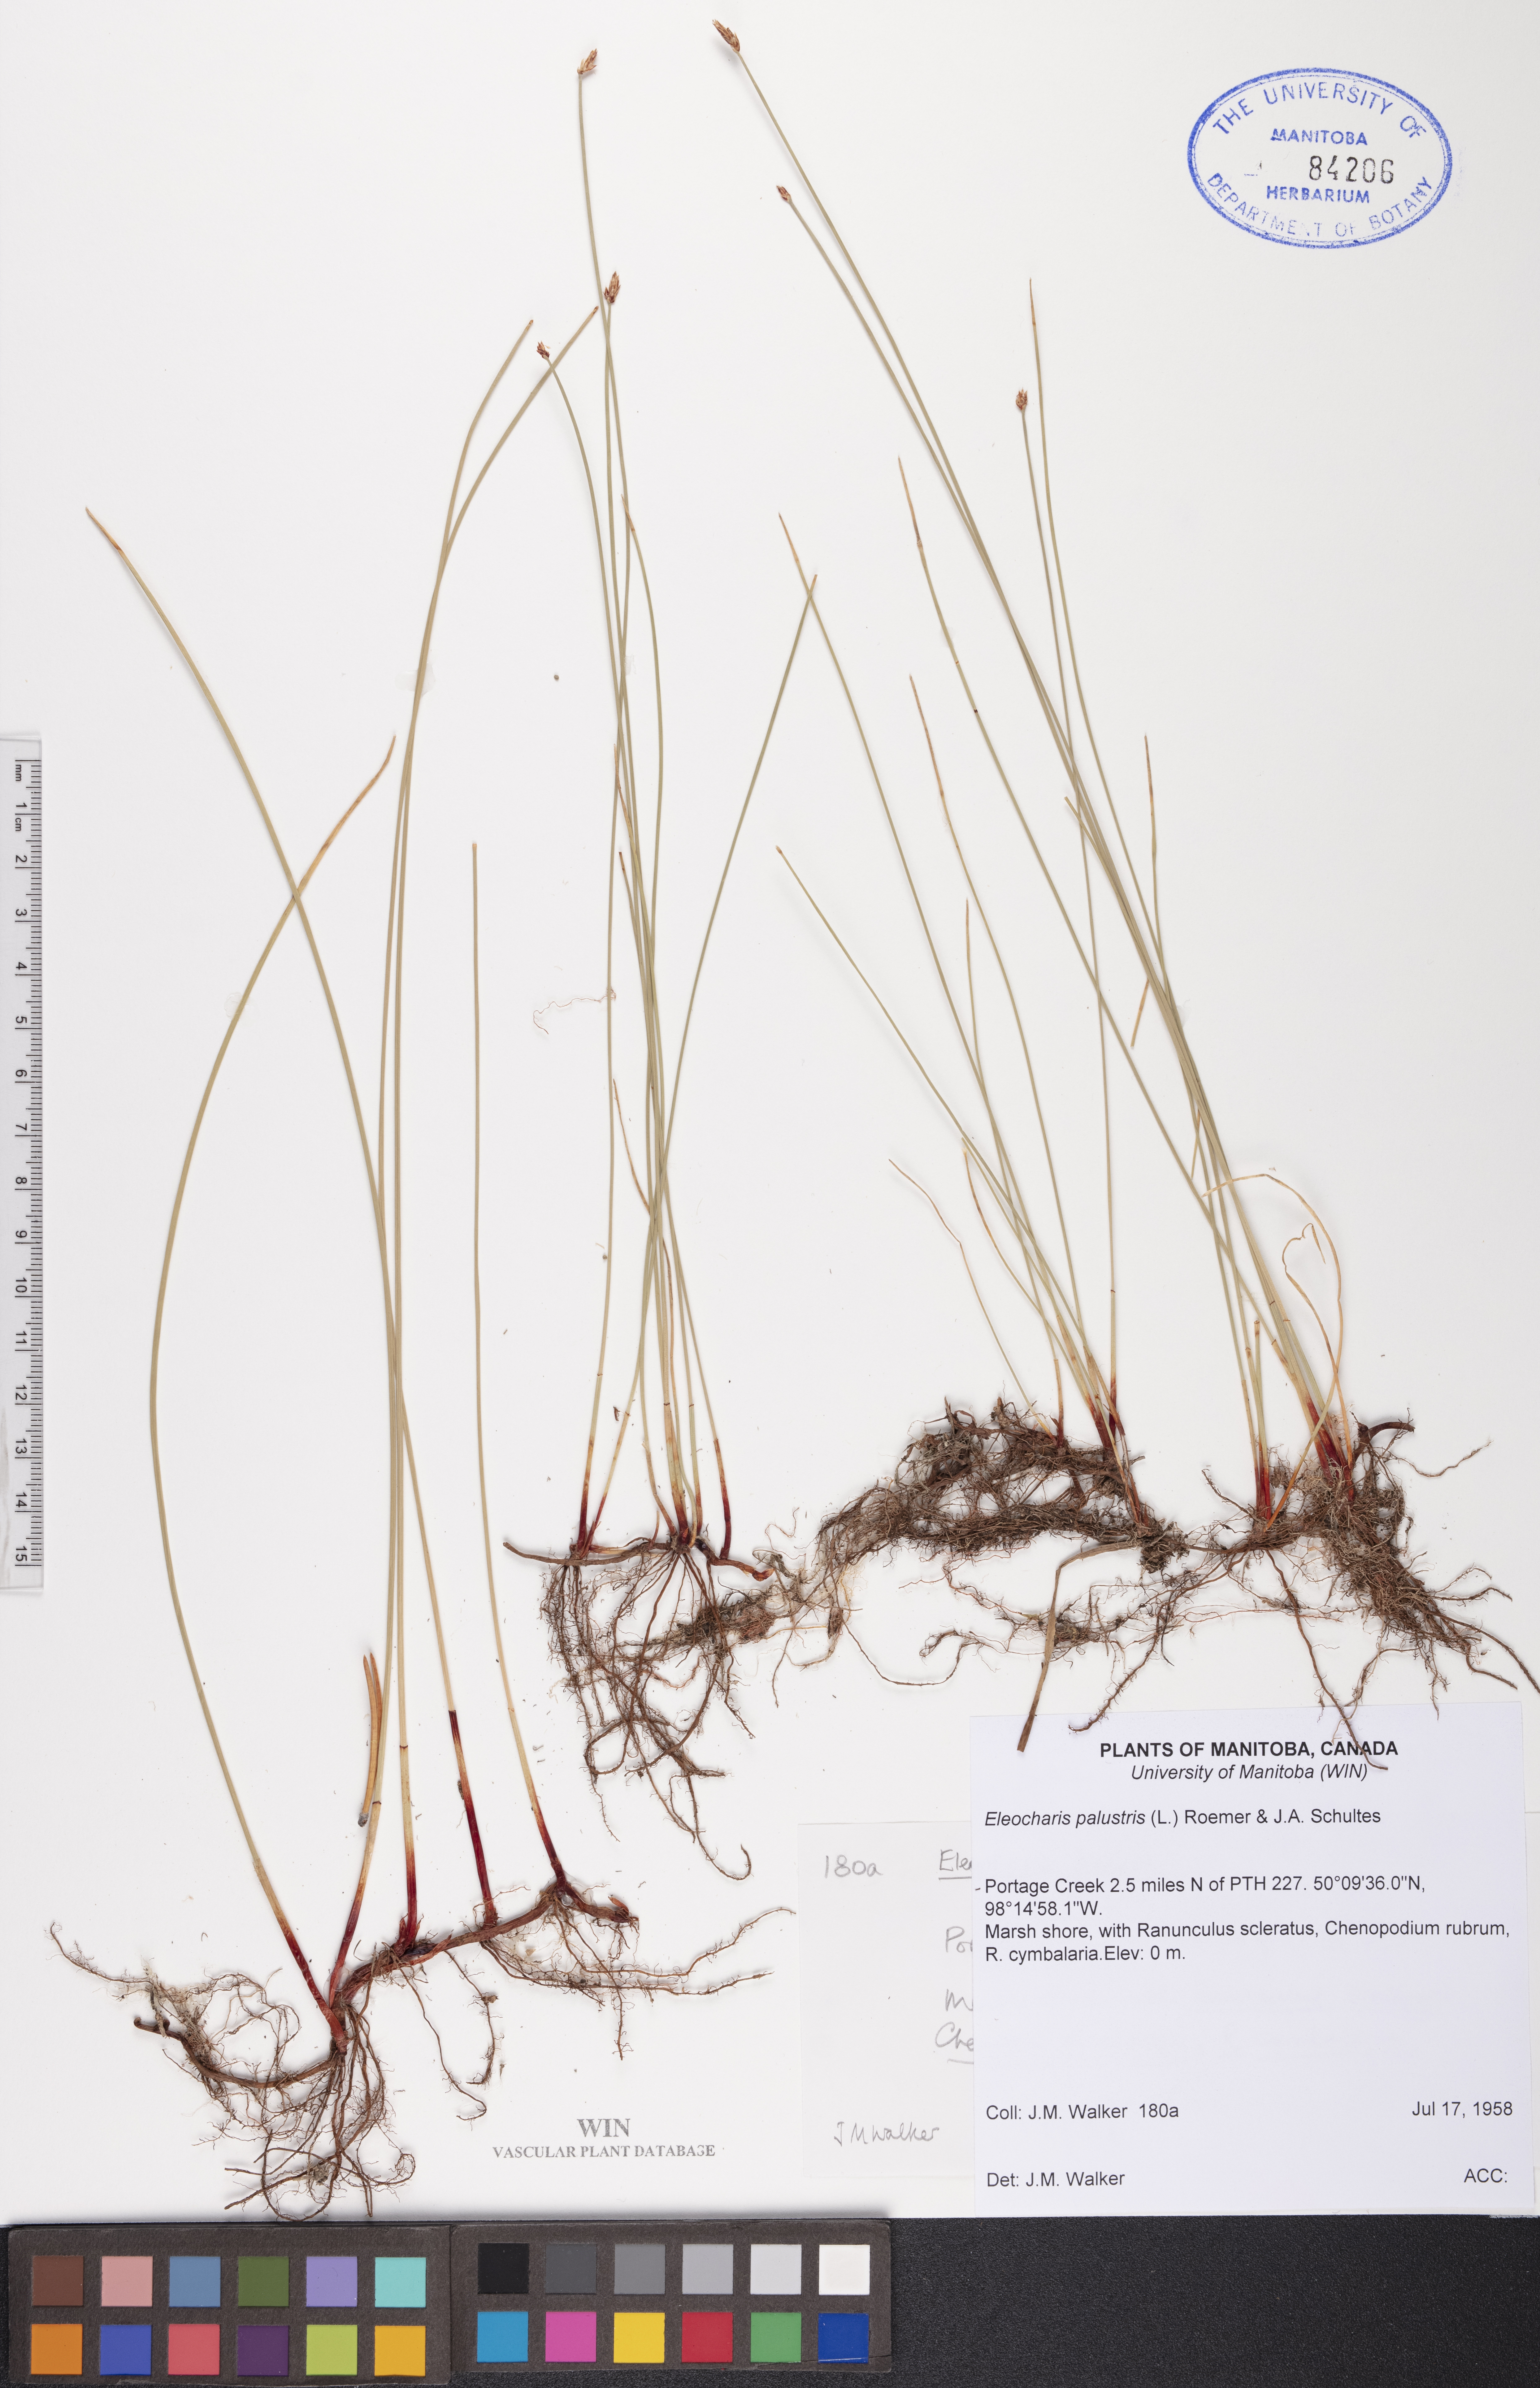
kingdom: Plantae
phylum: Tracheophyta
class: Liliopsida
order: Poales
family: Cyperaceae
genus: Eleocharis
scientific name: Eleocharis palustris
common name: Common spike-rush
